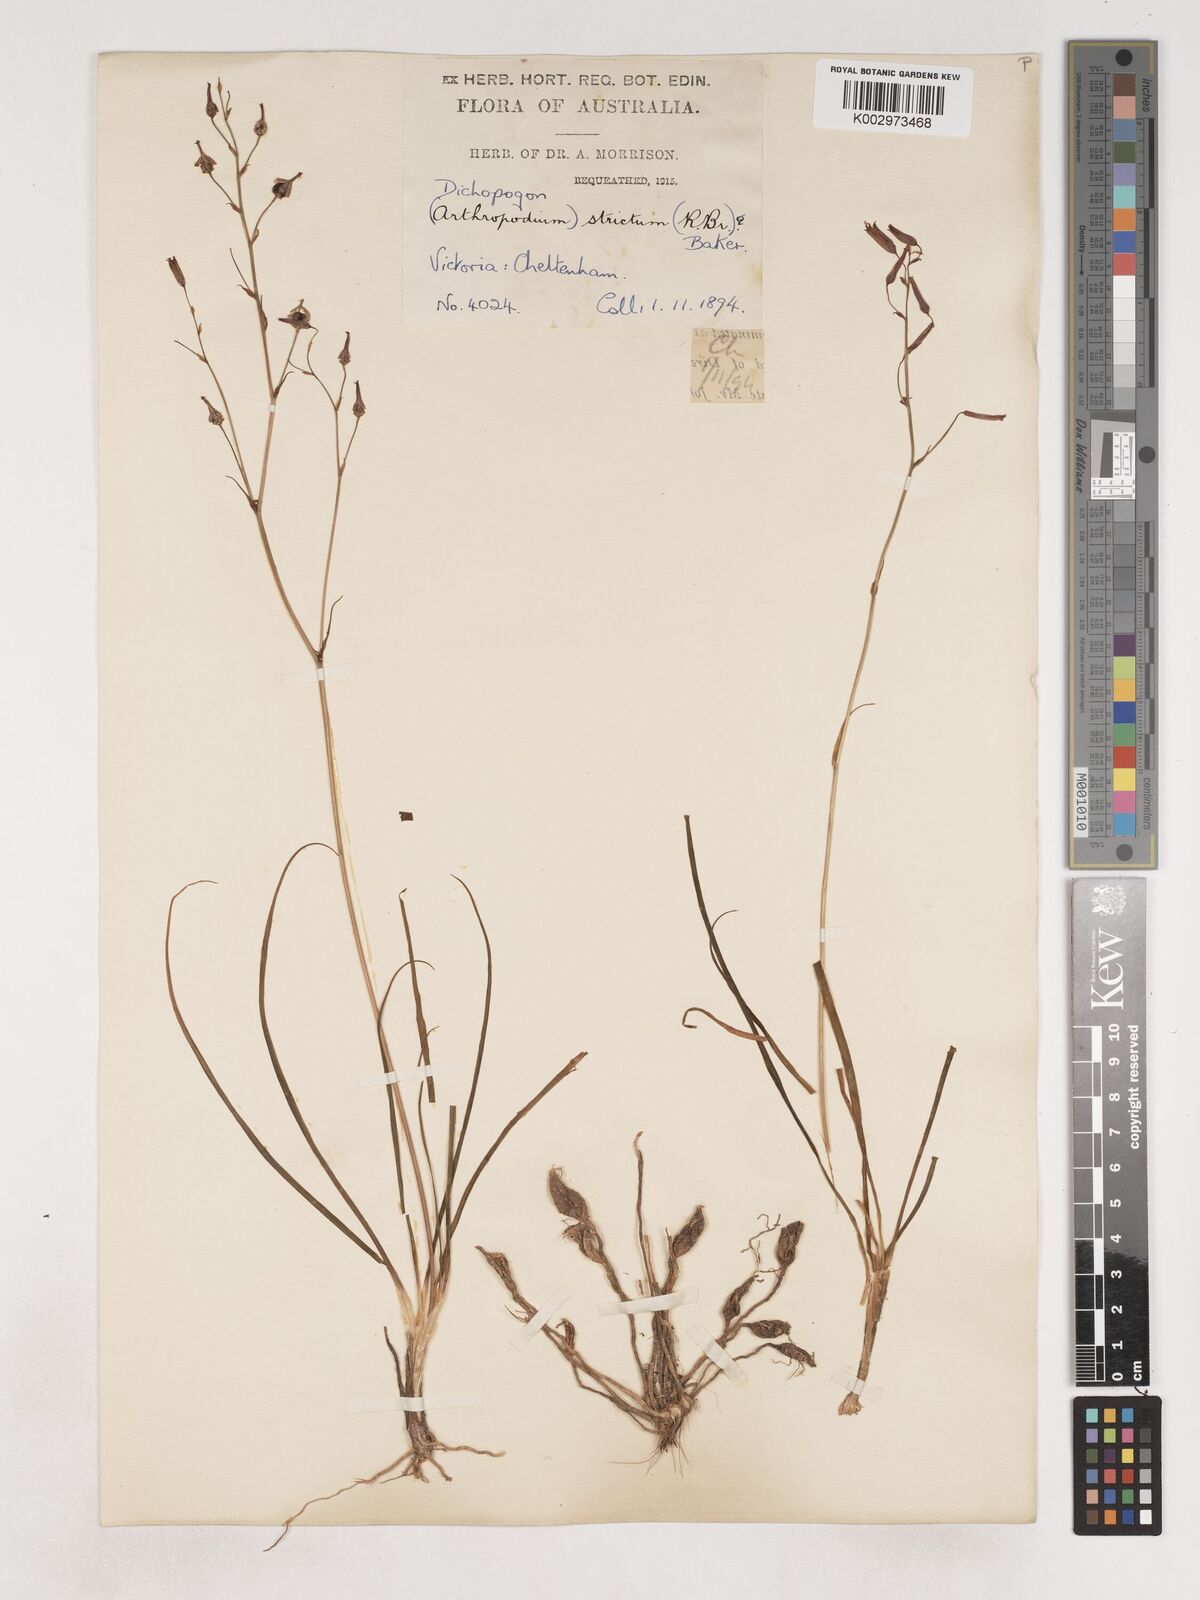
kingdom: Plantae
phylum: Tracheophyta
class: Liliopsida
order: Asparagales
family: Asparagaceae
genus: Arthropodium
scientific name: Arthropodium strictum
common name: Chocolate-lily
